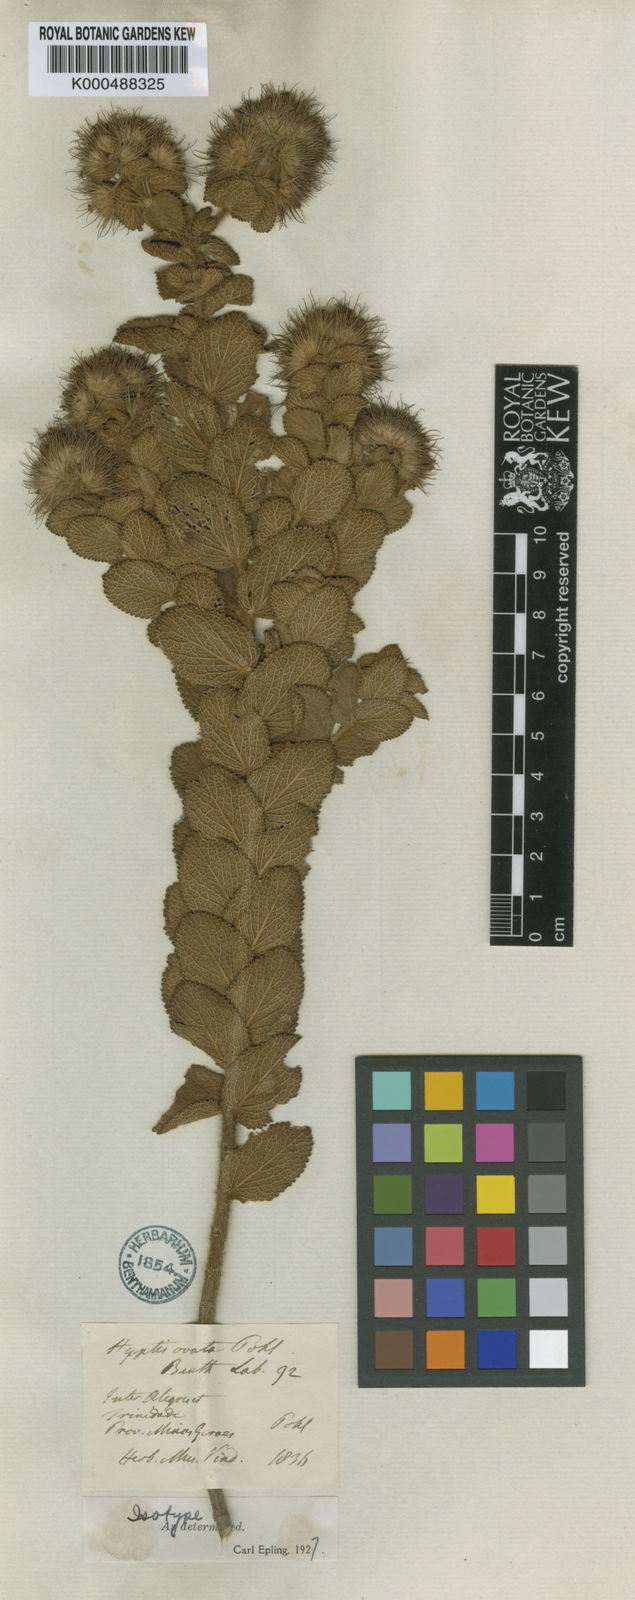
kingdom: Plantae
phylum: Tracheophyta
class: Magnoliopsida
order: Lamiales
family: Lamiaceae
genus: Hyptis
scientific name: Hyptis ovata
